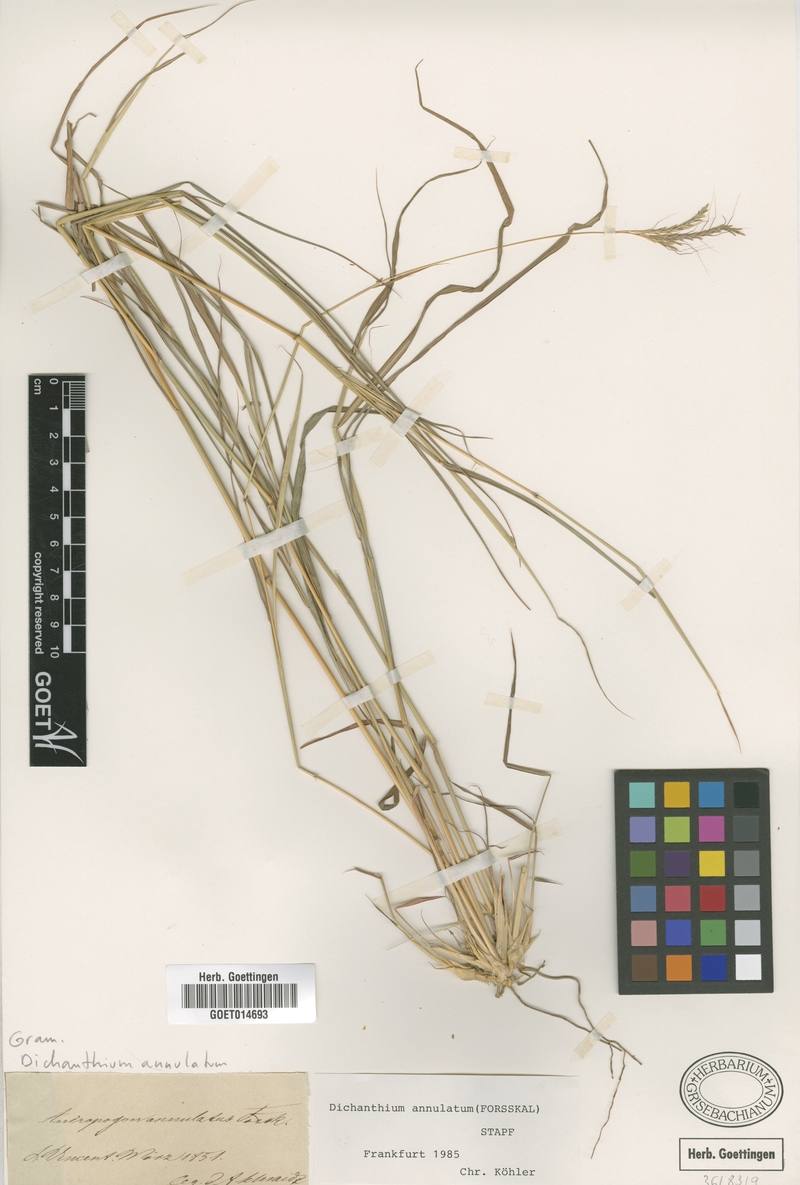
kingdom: Plantae
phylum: Tracheophyta
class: Liliopsida
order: Poales
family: Poaceae
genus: Dichanthium
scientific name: Dichanthium annulatum
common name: Kleberg's bluestem
